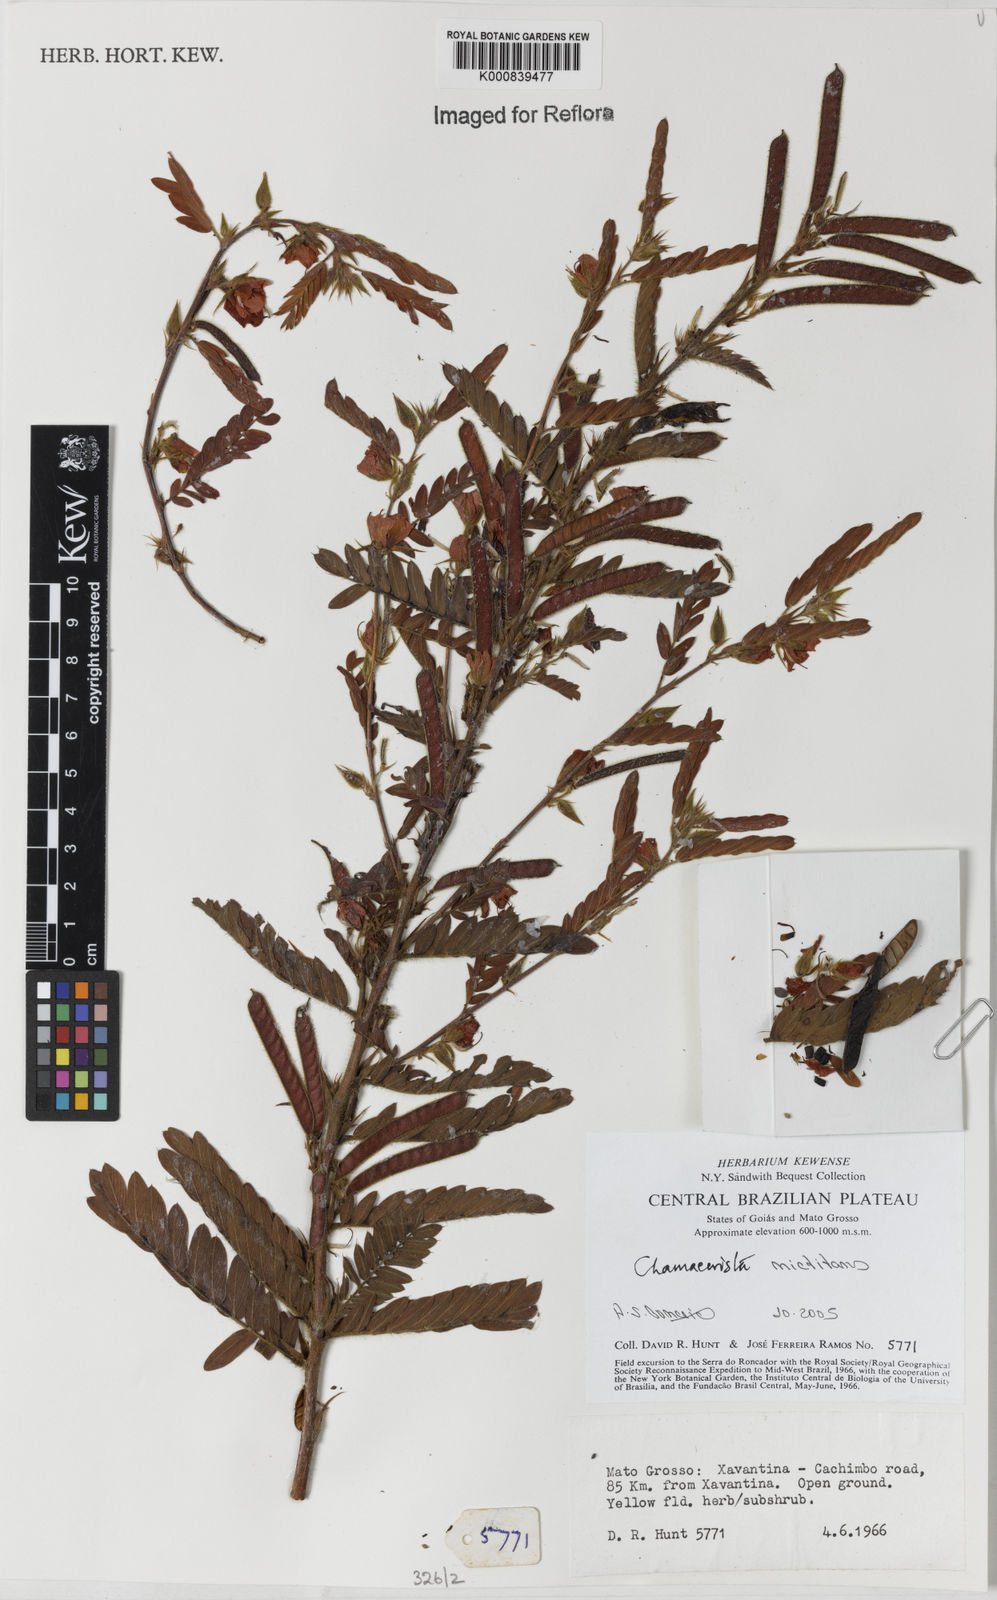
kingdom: Plantae
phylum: Tracheophyta
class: Magnoliopsida
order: Fabales
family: Fabaceae
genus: Chamaecrista
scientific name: Chamaecrista nictitans
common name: Sensitive cassia
